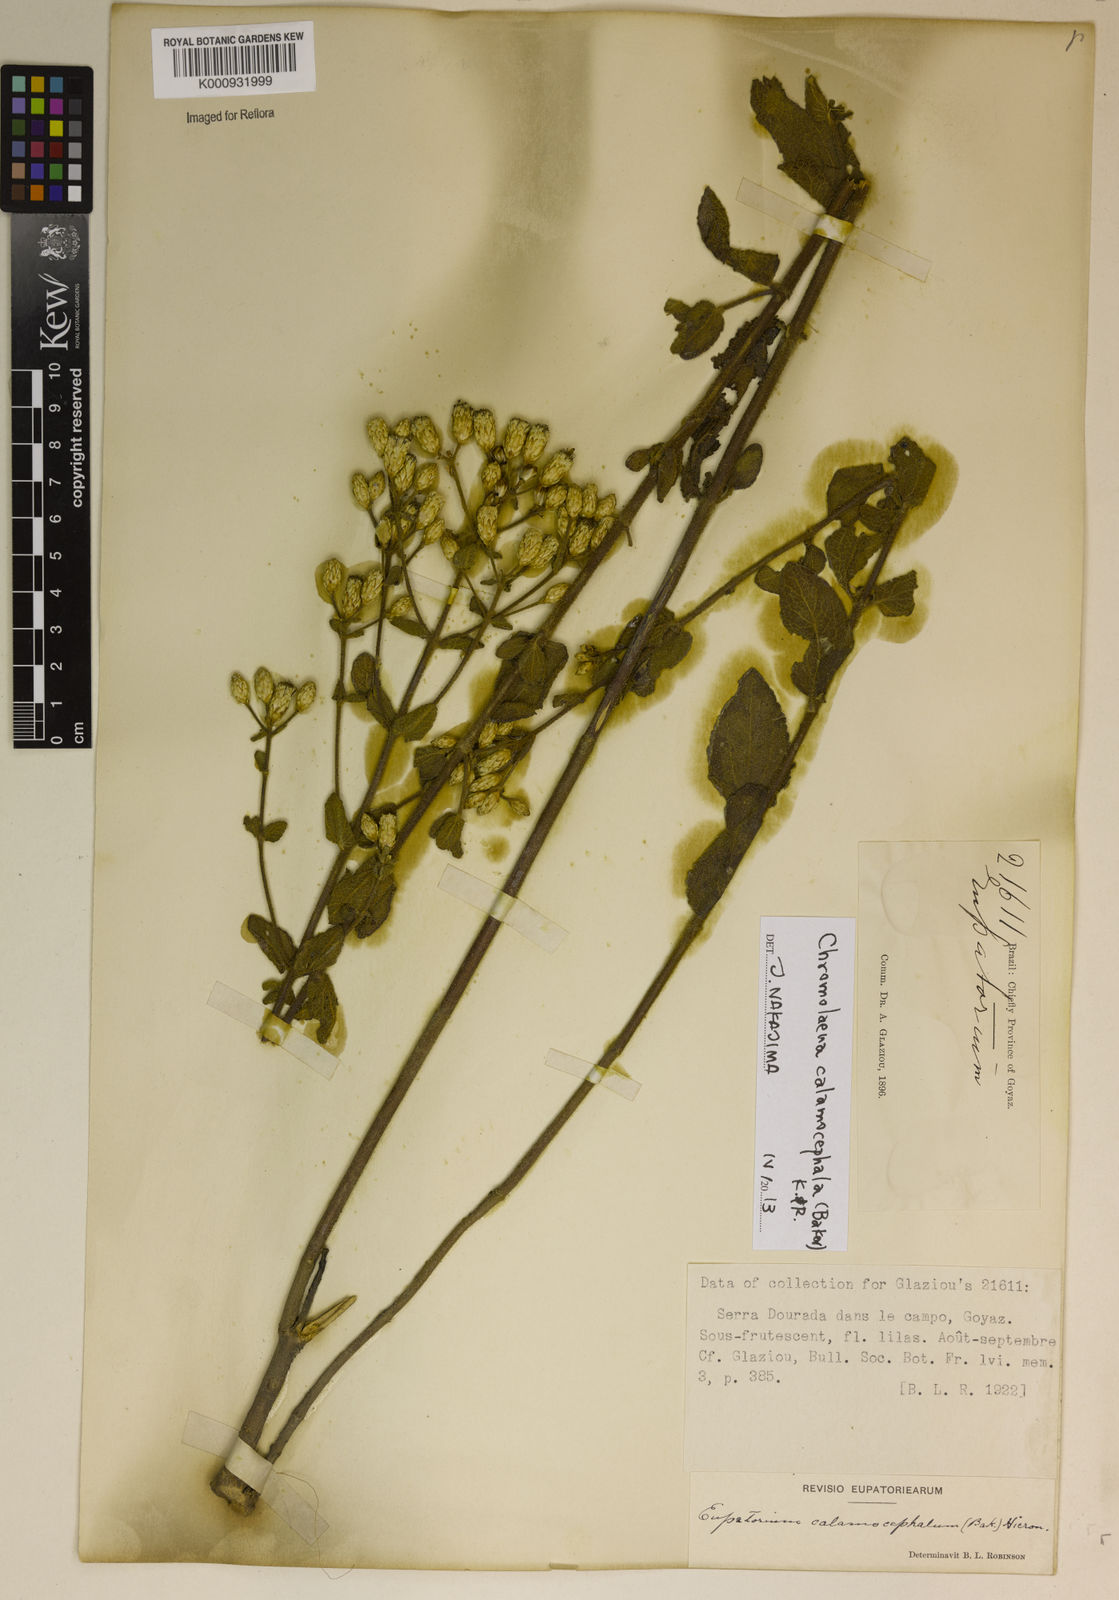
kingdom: Plantae
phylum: Tracheophyta
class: Magnoliopsida
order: Asterales
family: Asteraceae
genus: Chromolaena
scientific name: Chromolaena leucocephala
